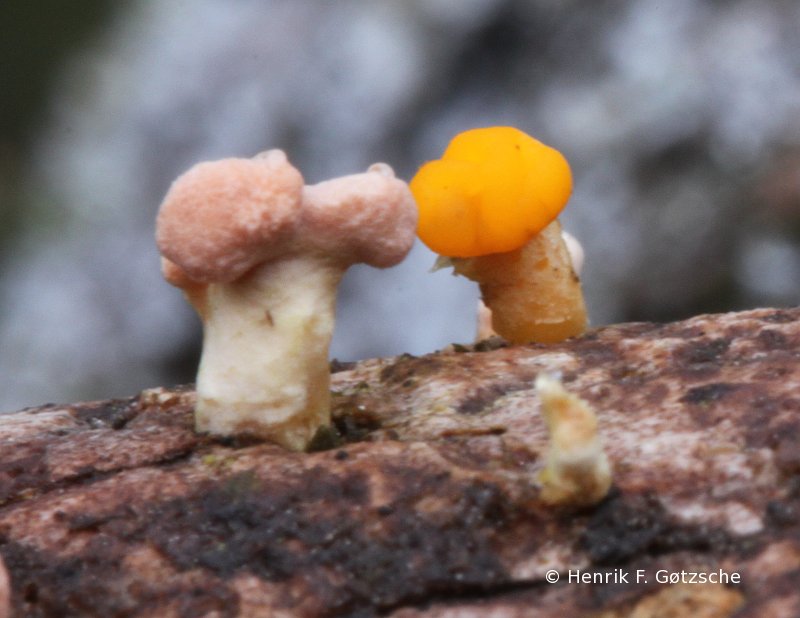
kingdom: Fungi
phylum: Basidiomycota
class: Dacrymycetes
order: Dacrymycetales
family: Dacrymycetaceae
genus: Ditiola
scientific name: Ditiola radicata
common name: rod-tåresvamp
